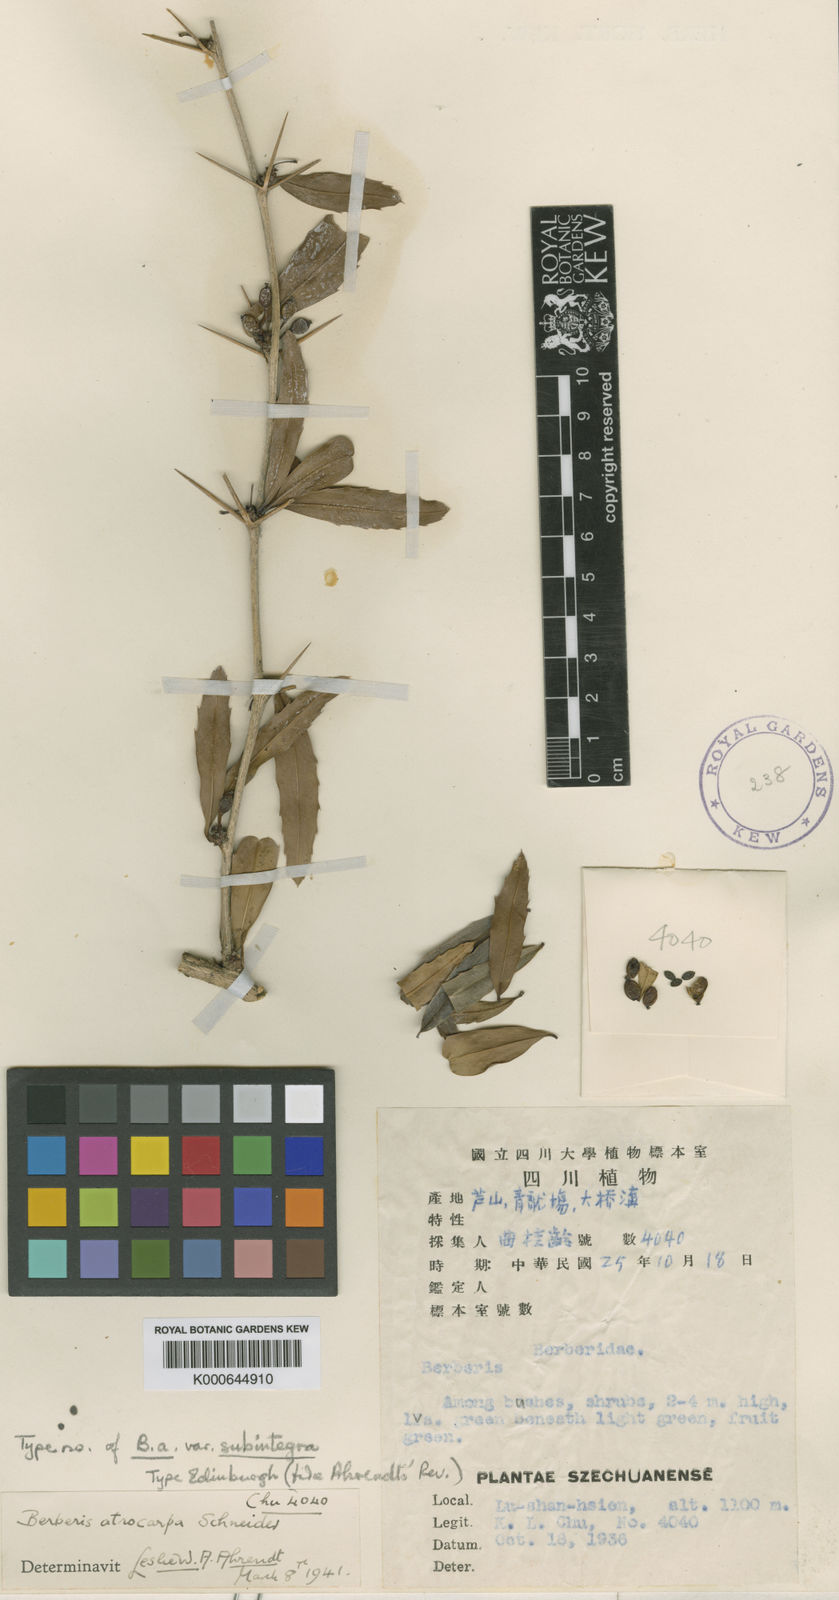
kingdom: Plantae
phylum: Tracheophyta
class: Magnoliopsida
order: Ranunculales
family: Berberidaceae
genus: Berberis
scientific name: Berberis atrocarpa
